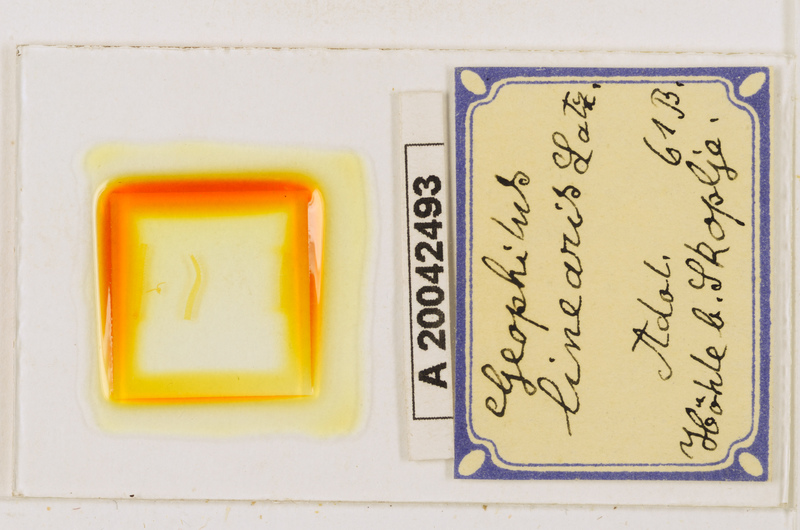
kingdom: Animalia
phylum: Arthropoda
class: Chilopoda
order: Geophilomorpha
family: Geophilidae
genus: Stenotaenia
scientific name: Stenotaenia linearis
